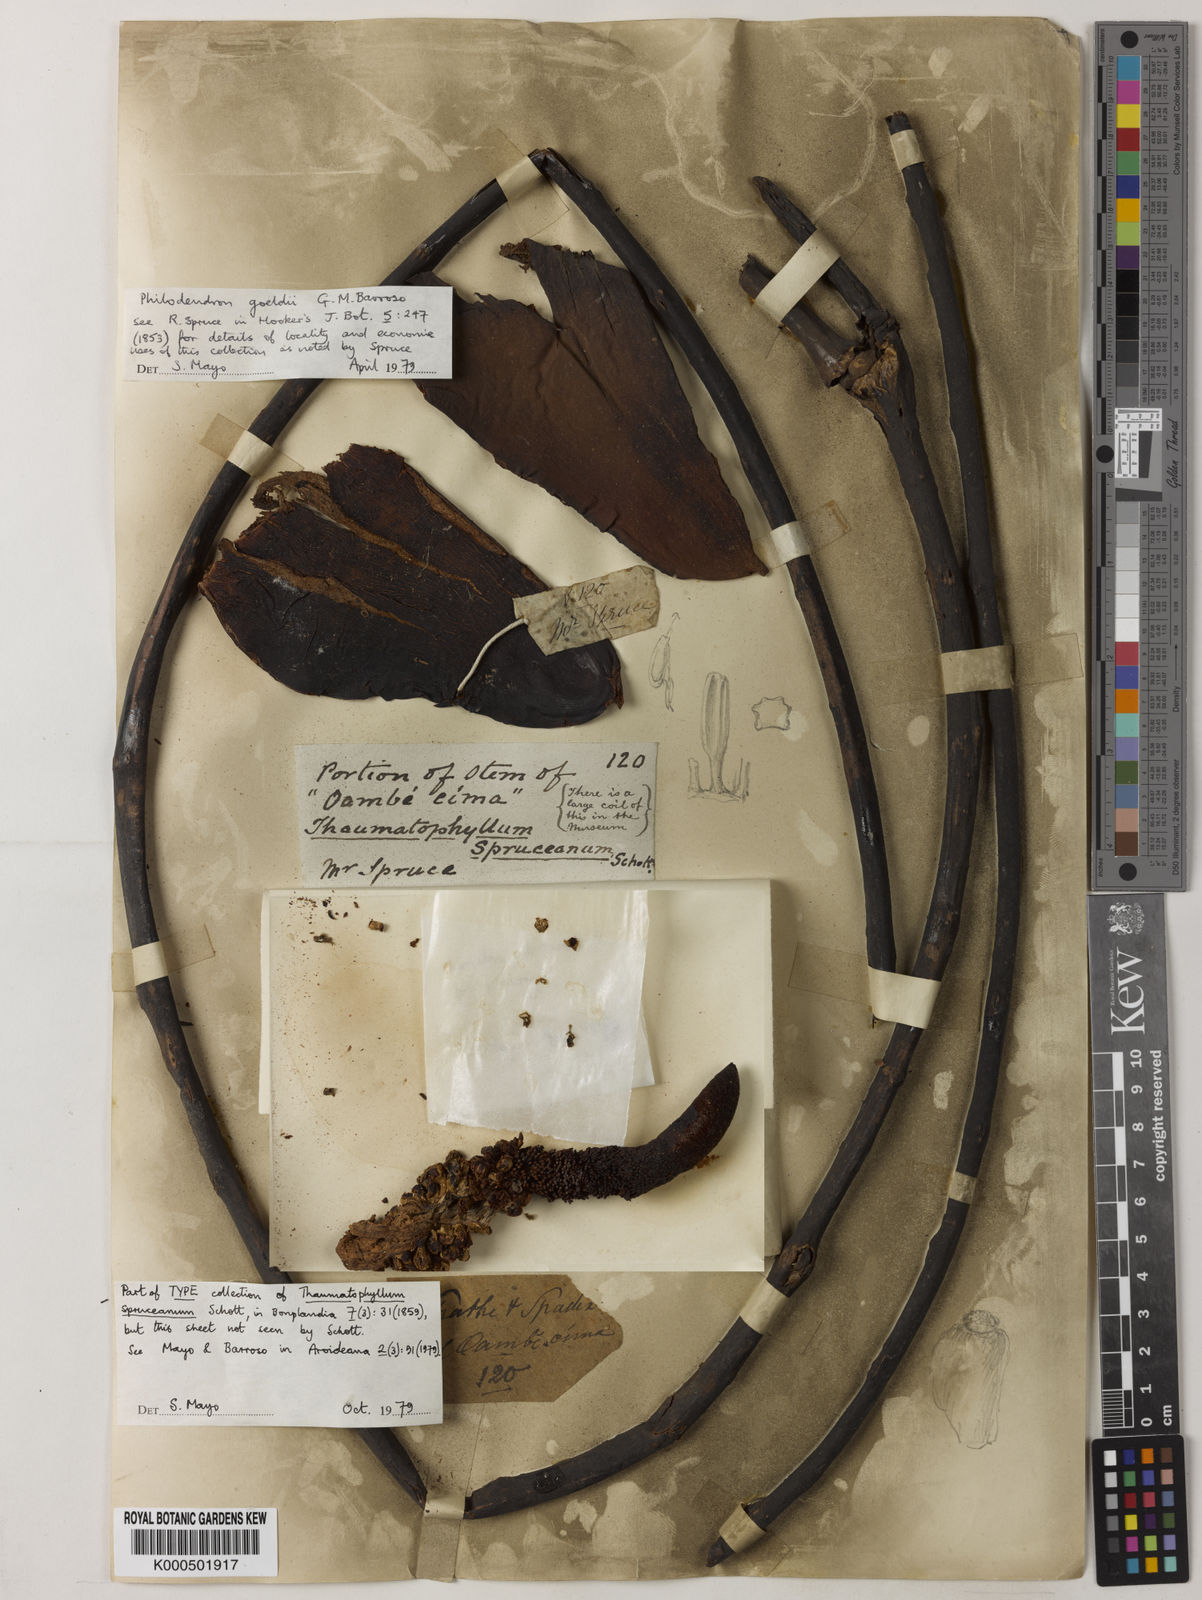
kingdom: Plantae
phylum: Tracheophyta
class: Liliopsida
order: Alismatales
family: Araceae
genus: Thaumatophyllum
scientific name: Thaumatophyllum spruceanum
